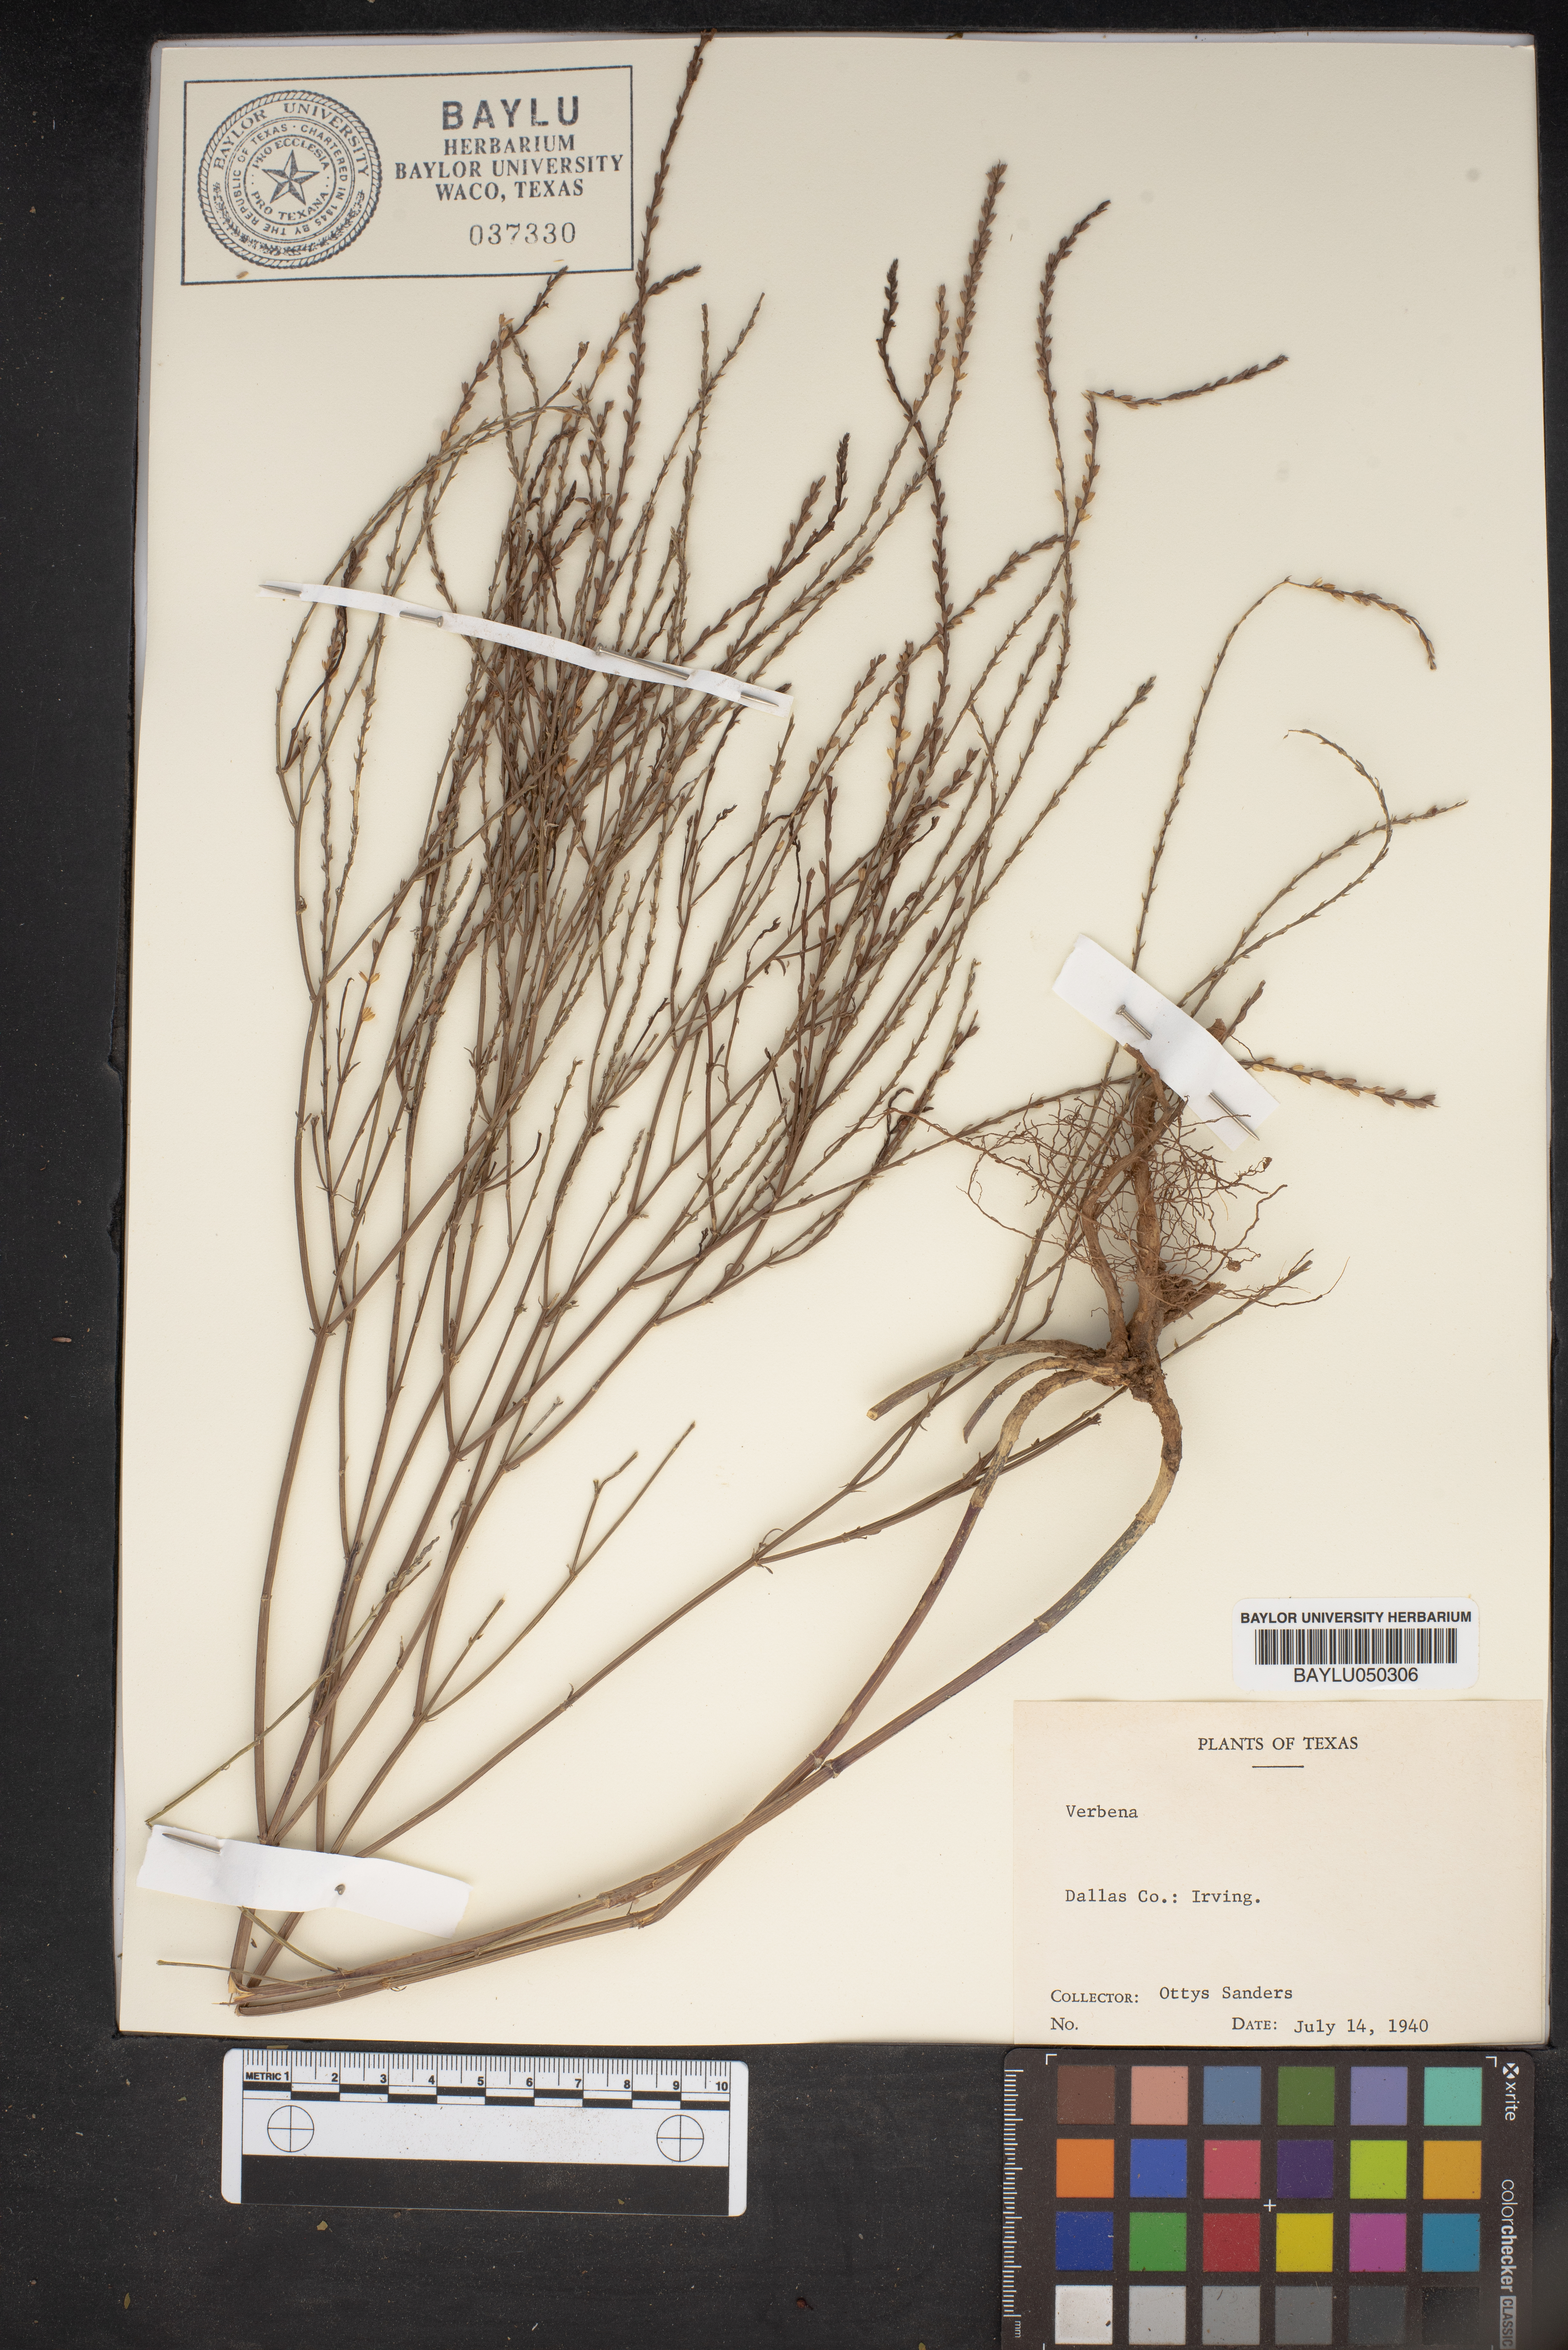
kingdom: Plantae
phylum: Tracheophyta
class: Magnoliopsida
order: Lamiales
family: Verbenaceae
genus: Verbena
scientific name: Verbena
